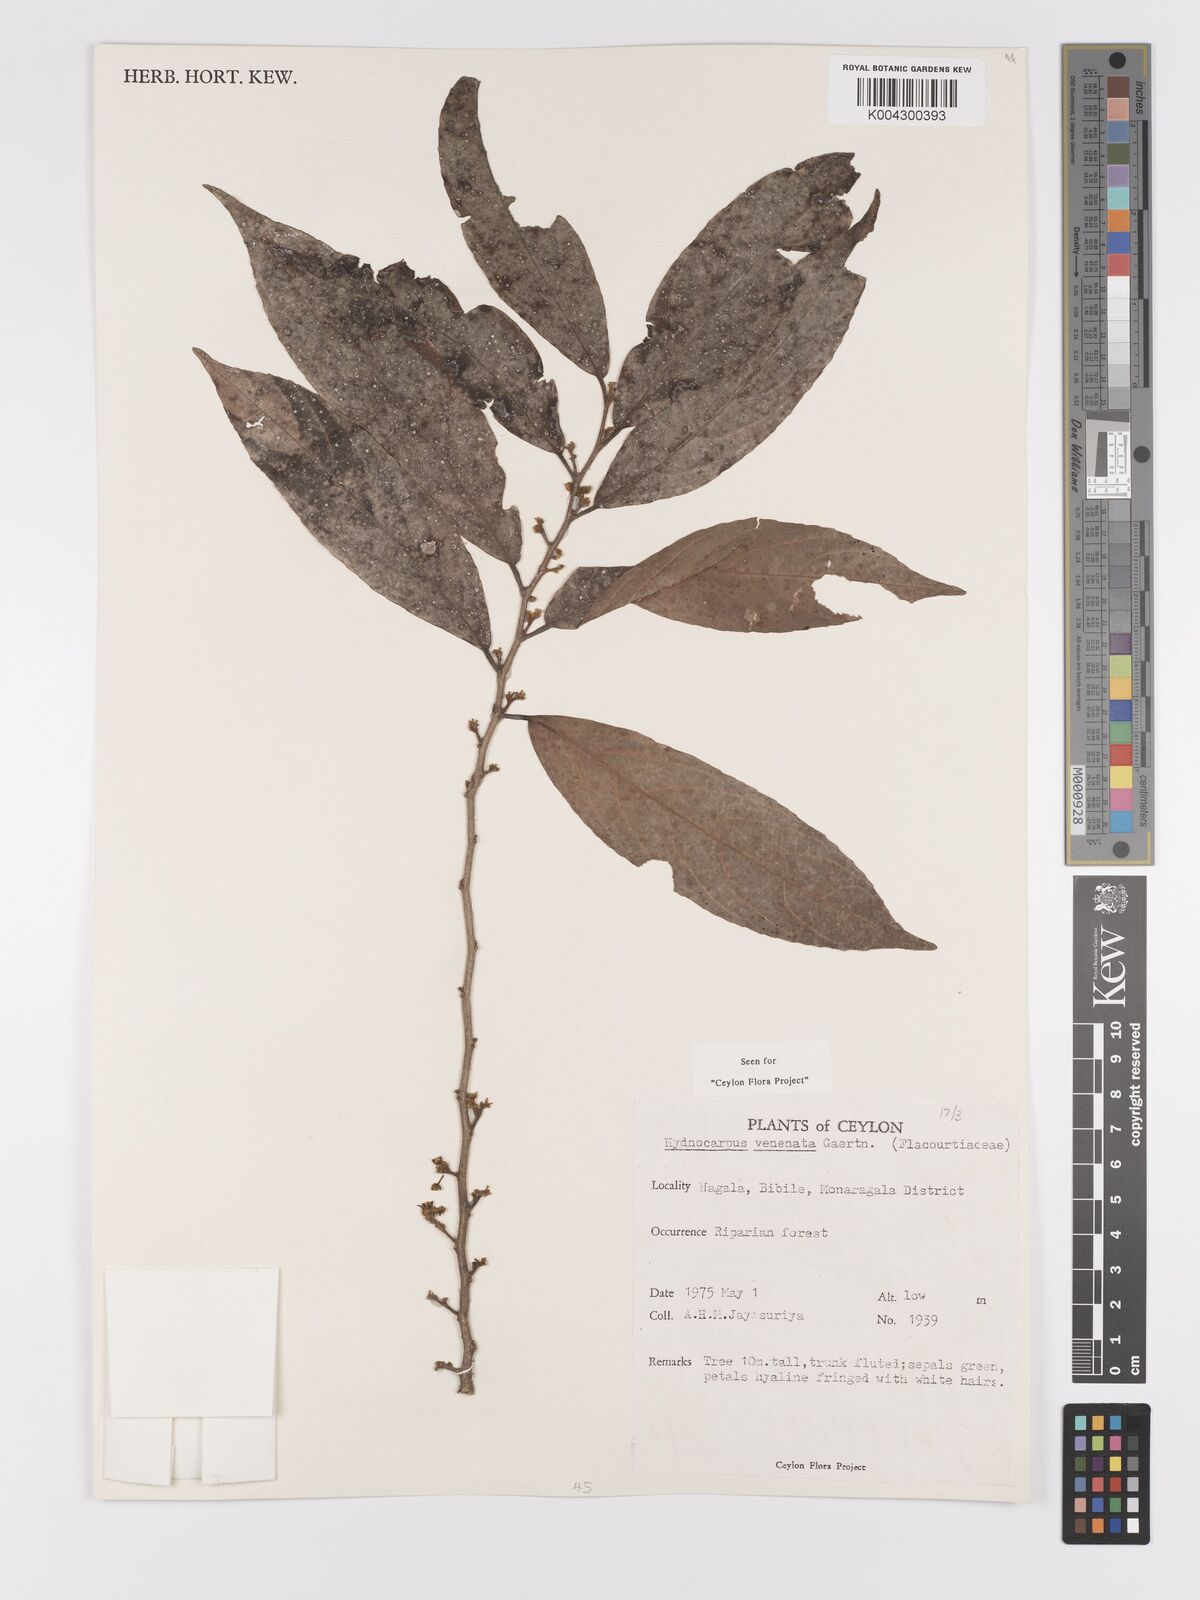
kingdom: Plantae
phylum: Tracheophyta
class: Magnoliopsida
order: Malpighiales
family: Achariaceae
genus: Hydnocarpus
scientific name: Hydnocarpus venenatus
